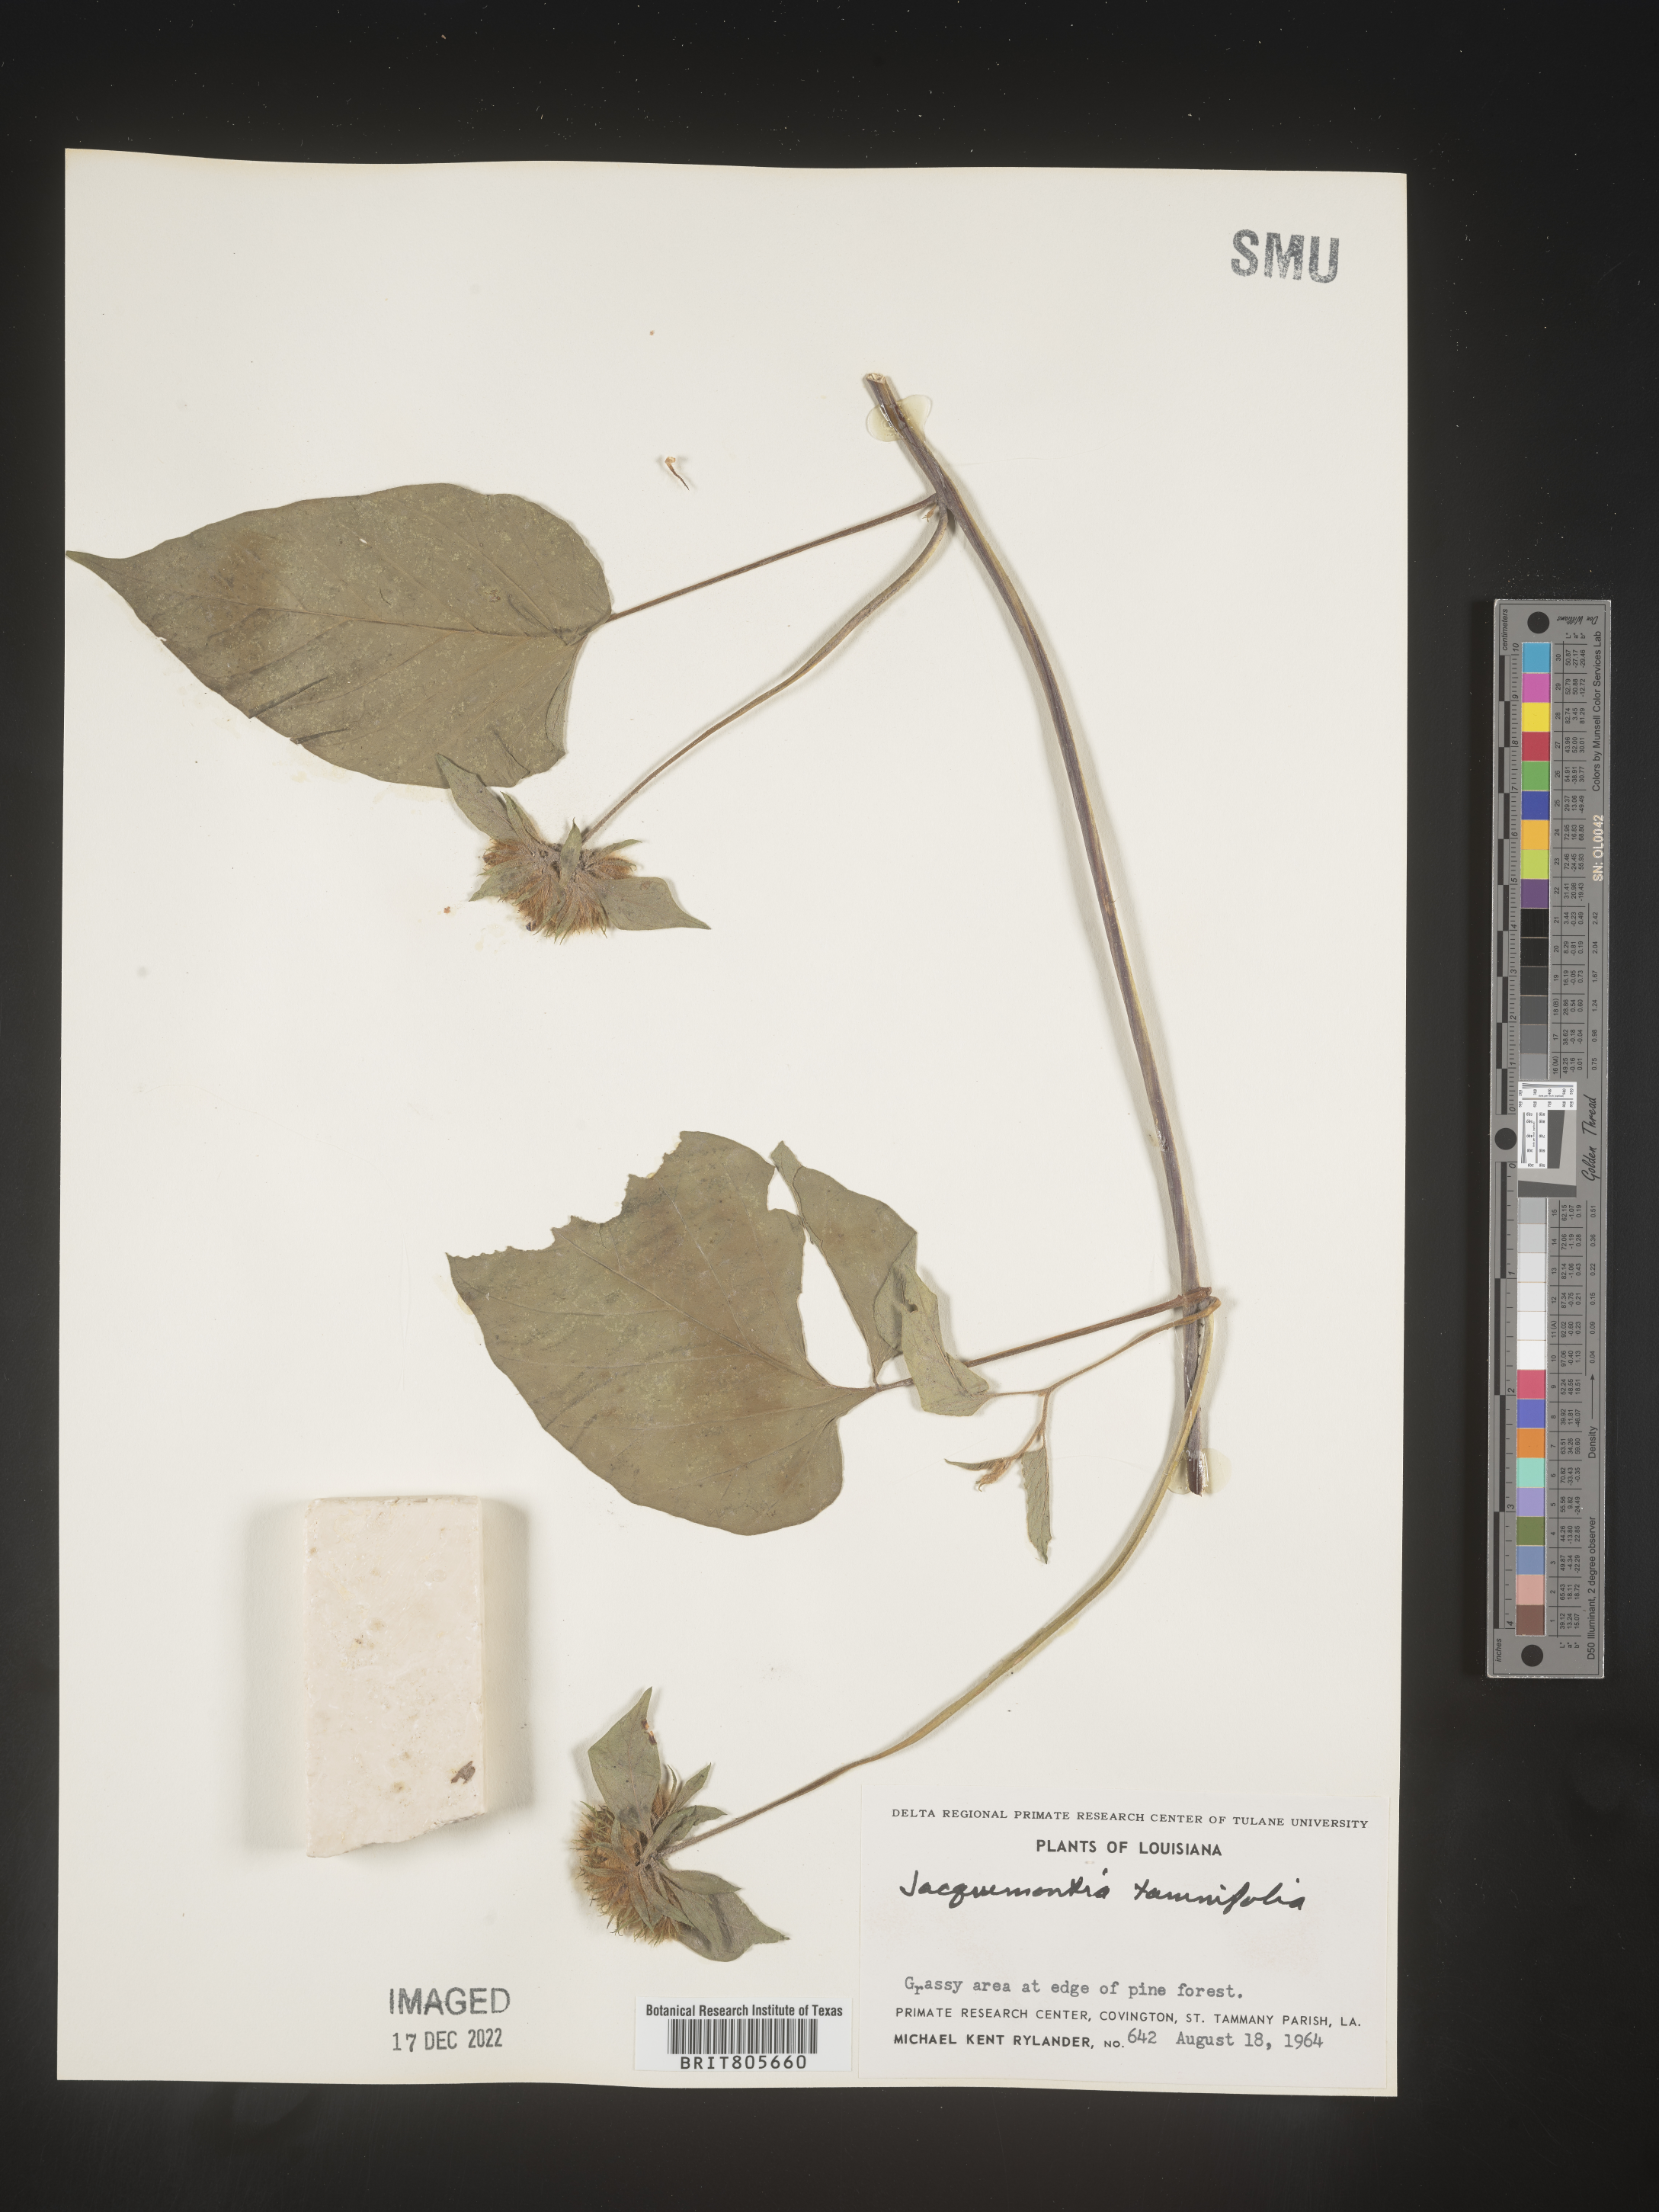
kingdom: Plantae
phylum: Tracheophyta
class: Magnoliopsida
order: Solanales
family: Convolvulaceae
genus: Jacquemontia
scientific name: Jacquemontia tamnifolia
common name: Hairy clustervine
